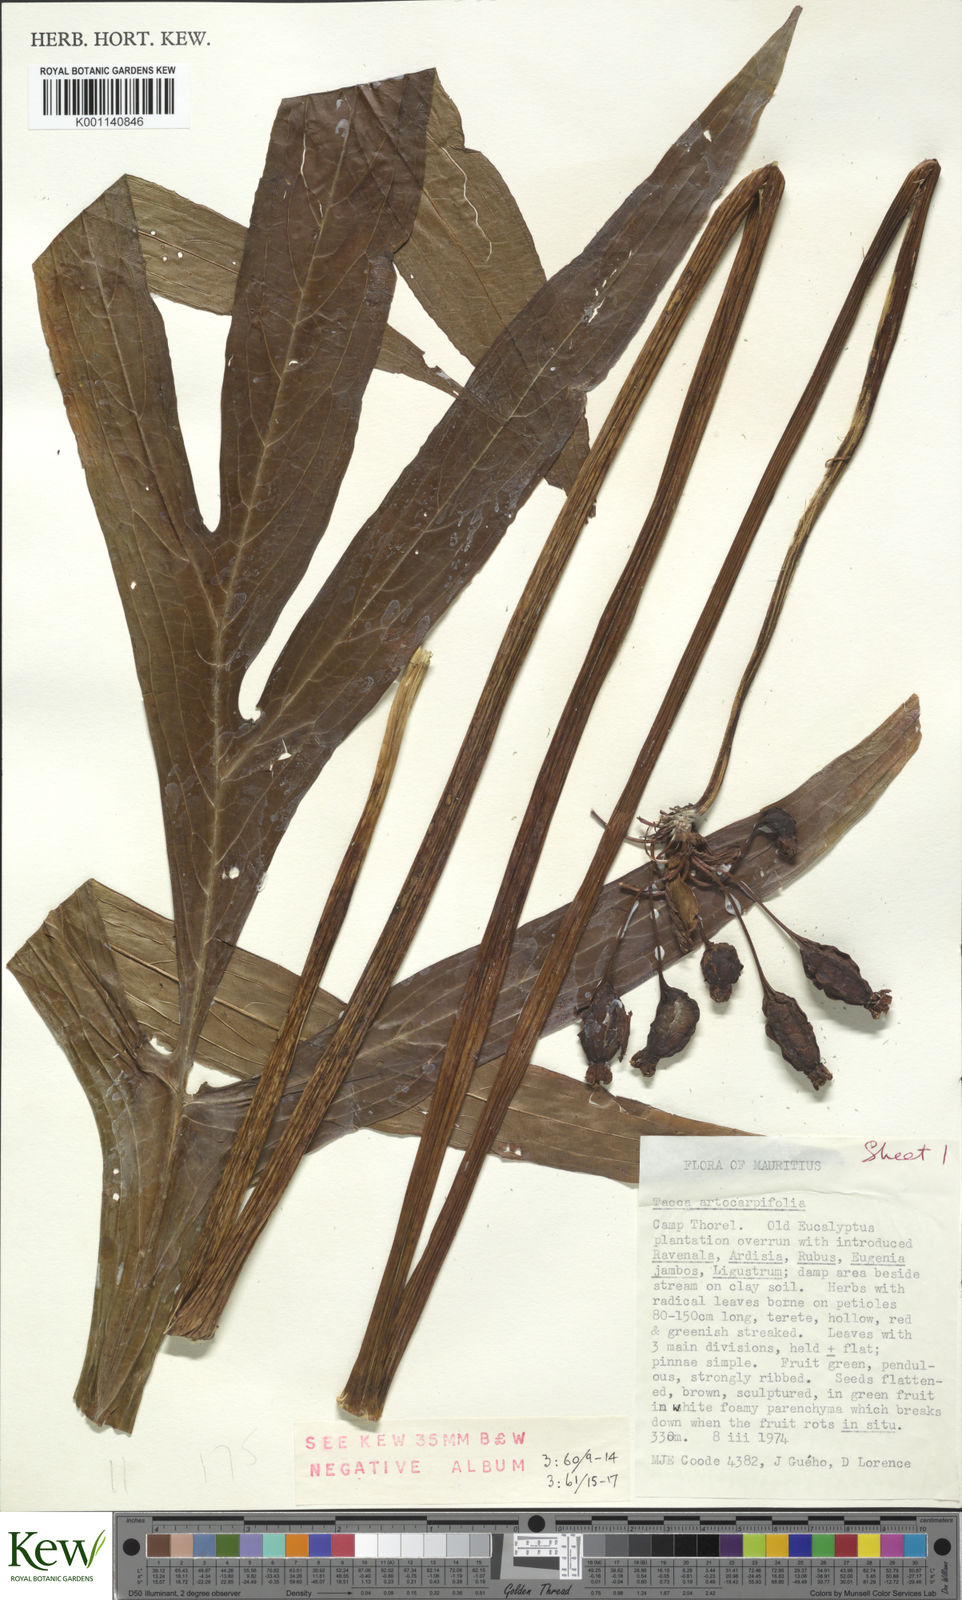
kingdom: Plantae
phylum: Tracheophyta
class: Liliopsida
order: Dioscoreales
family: Dioscoreaceae
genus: Tacca
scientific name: Tacca leontopetaloides
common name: Arrowroot
